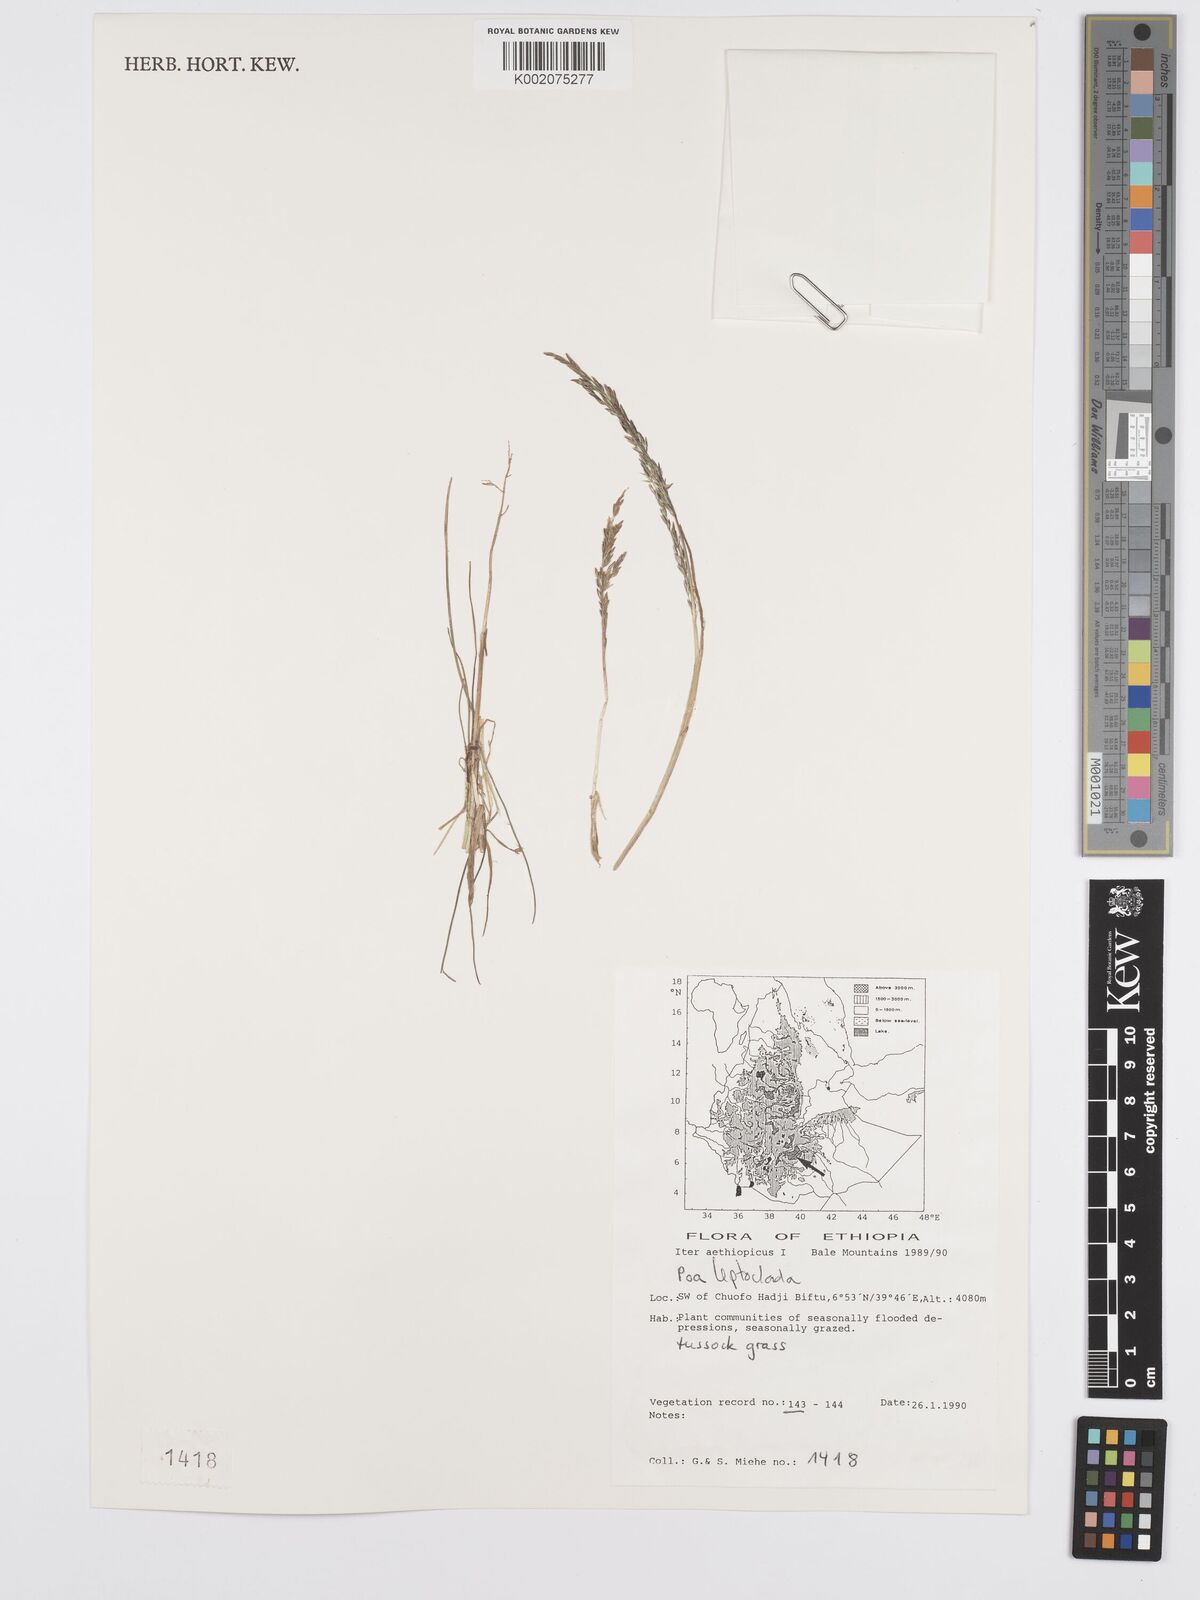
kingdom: Plantae
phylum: Tracheophyta
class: Liliopsida
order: Poales
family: Poaceae
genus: Poa
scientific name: Poa leptoclada
